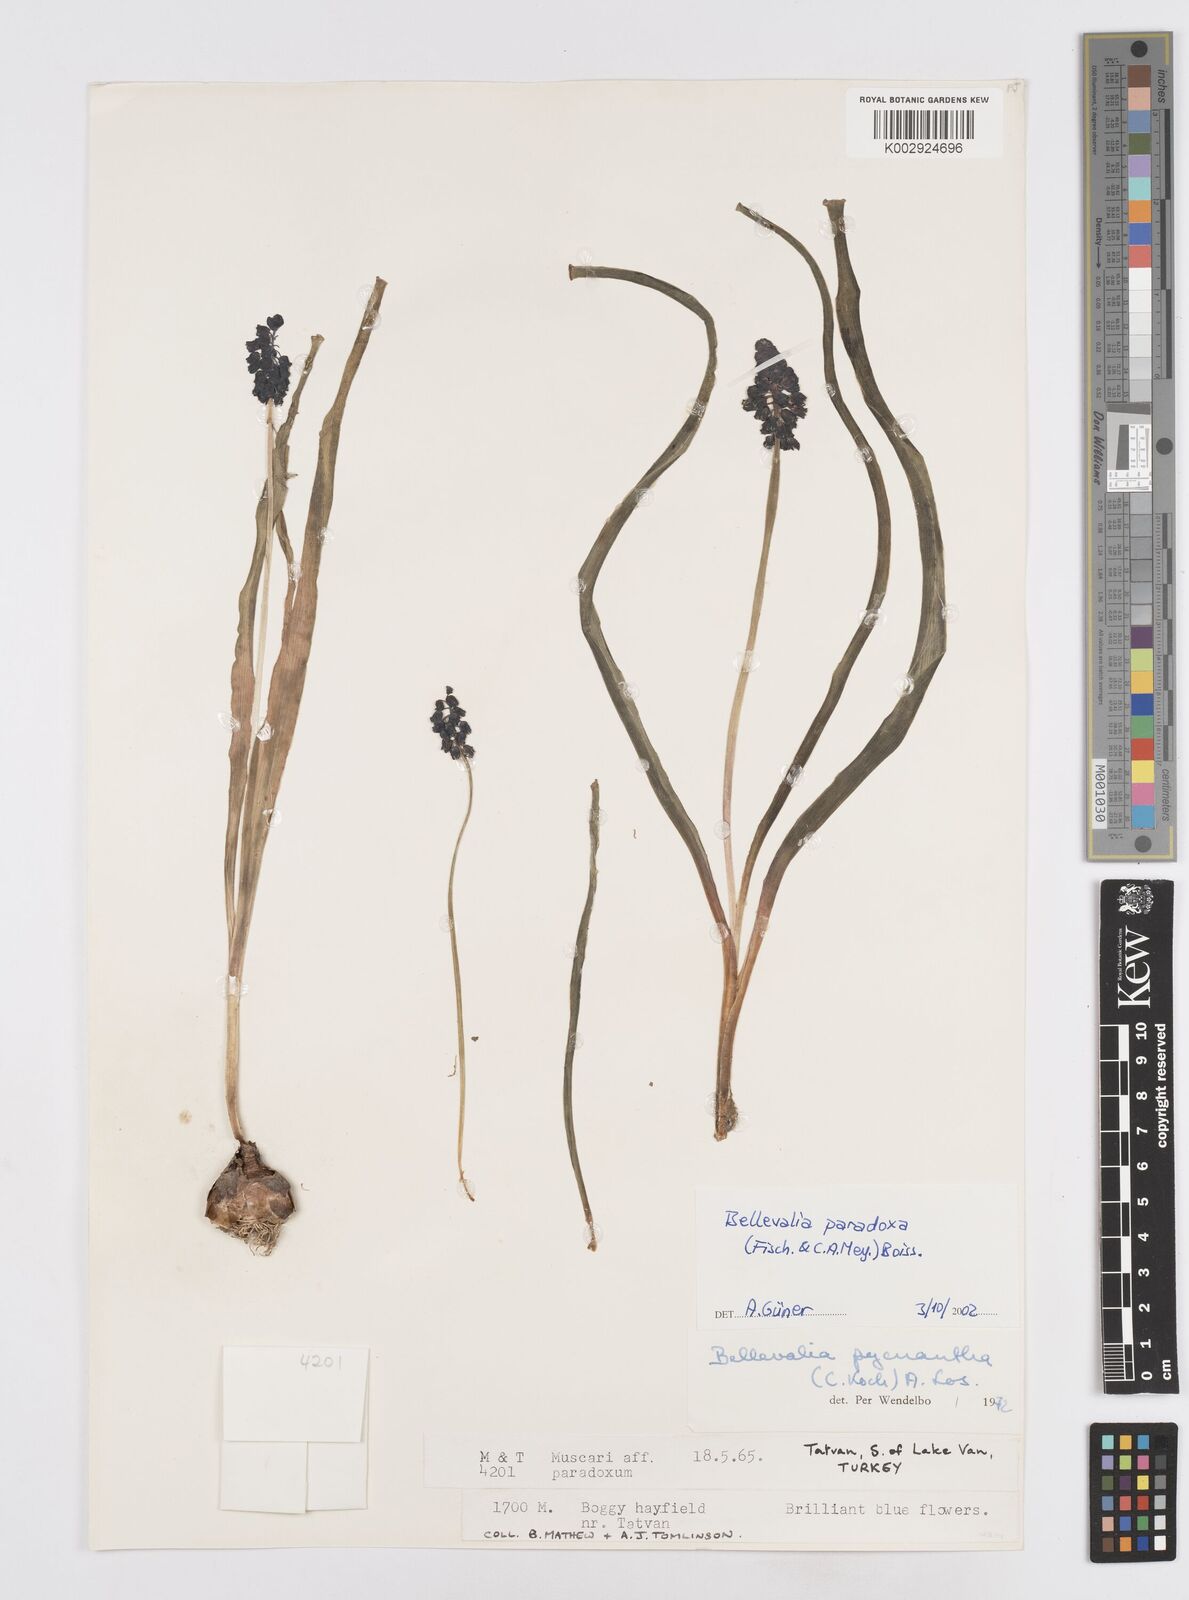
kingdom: Plantae
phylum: Tracheophyta
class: Liliopsida
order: Asparagales
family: Asparagaceae
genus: Bellevalia
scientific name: Bellevalia paradoxa
